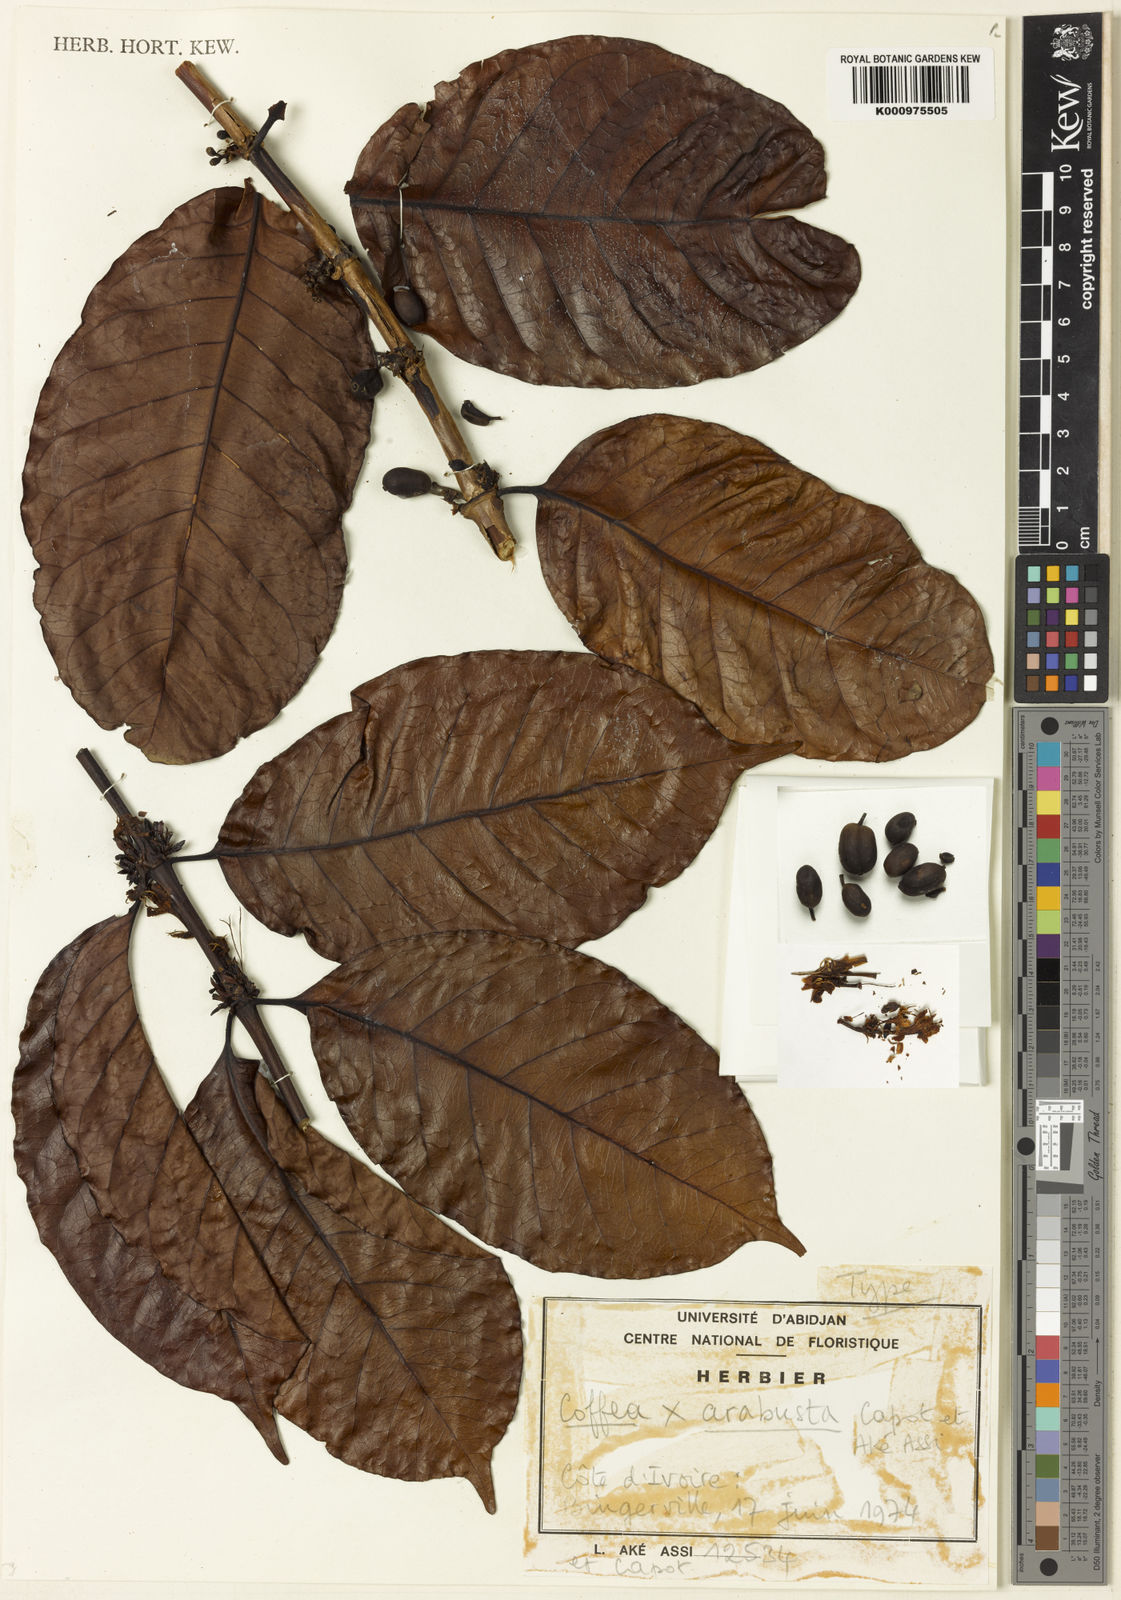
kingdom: Plantae
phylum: Tracheophyta
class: Magnoliopsida
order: Gentianales
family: Rubiaceae
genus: Coffea
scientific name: Coffea
